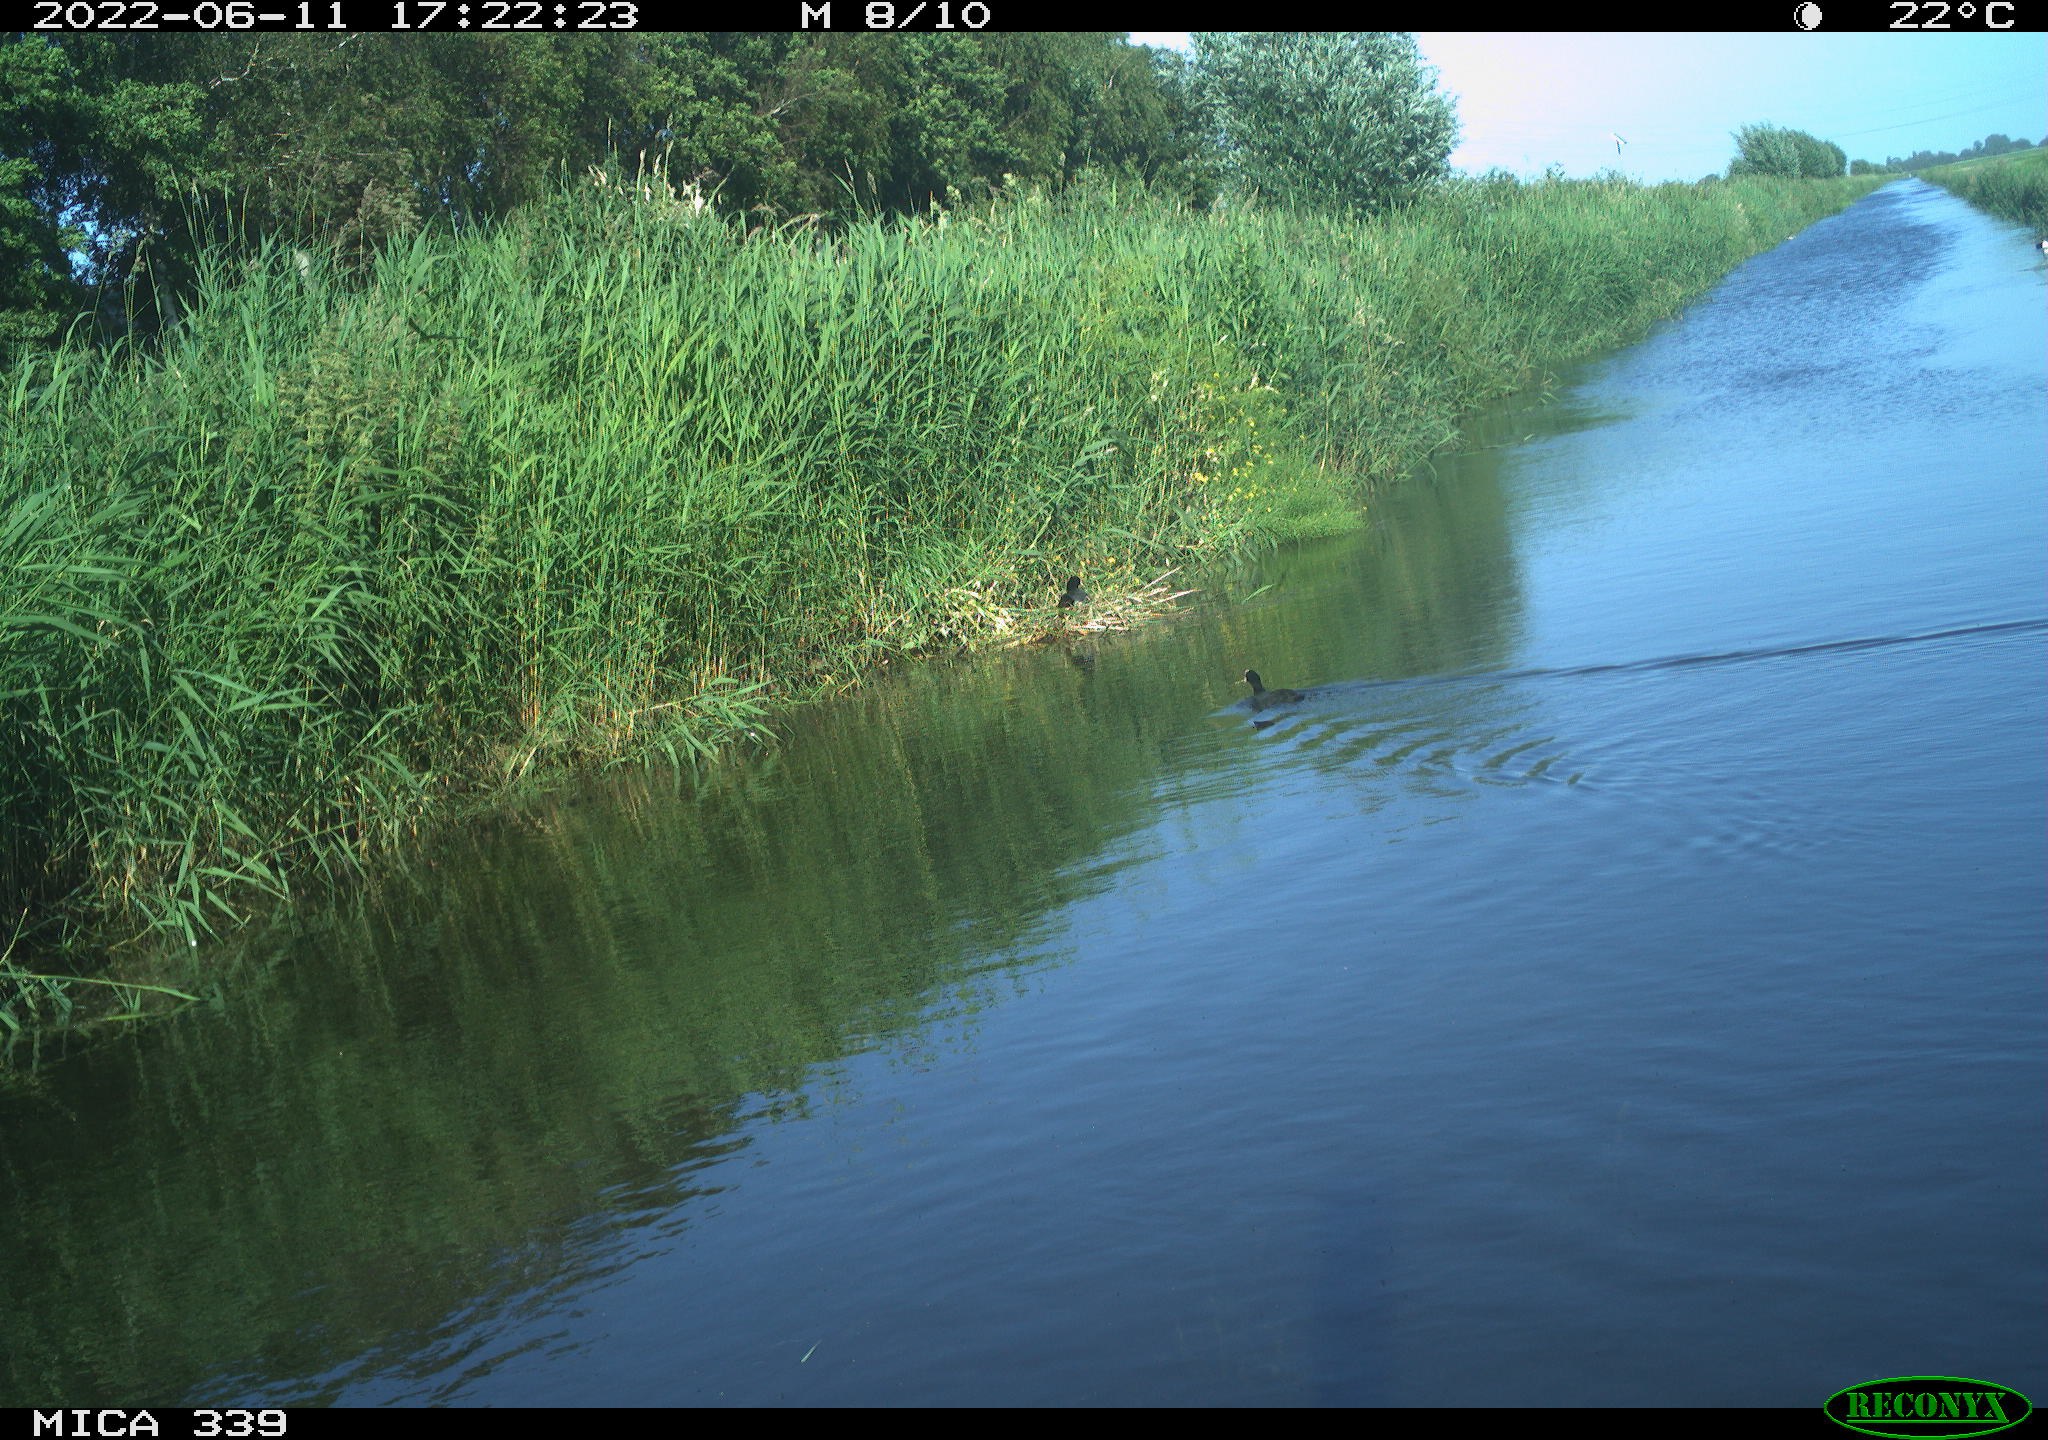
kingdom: Animalia
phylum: Chordata
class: Aves
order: Gruiformes
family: Rallidae
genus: Fulica
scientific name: Fulica atra
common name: Eurasian coot
